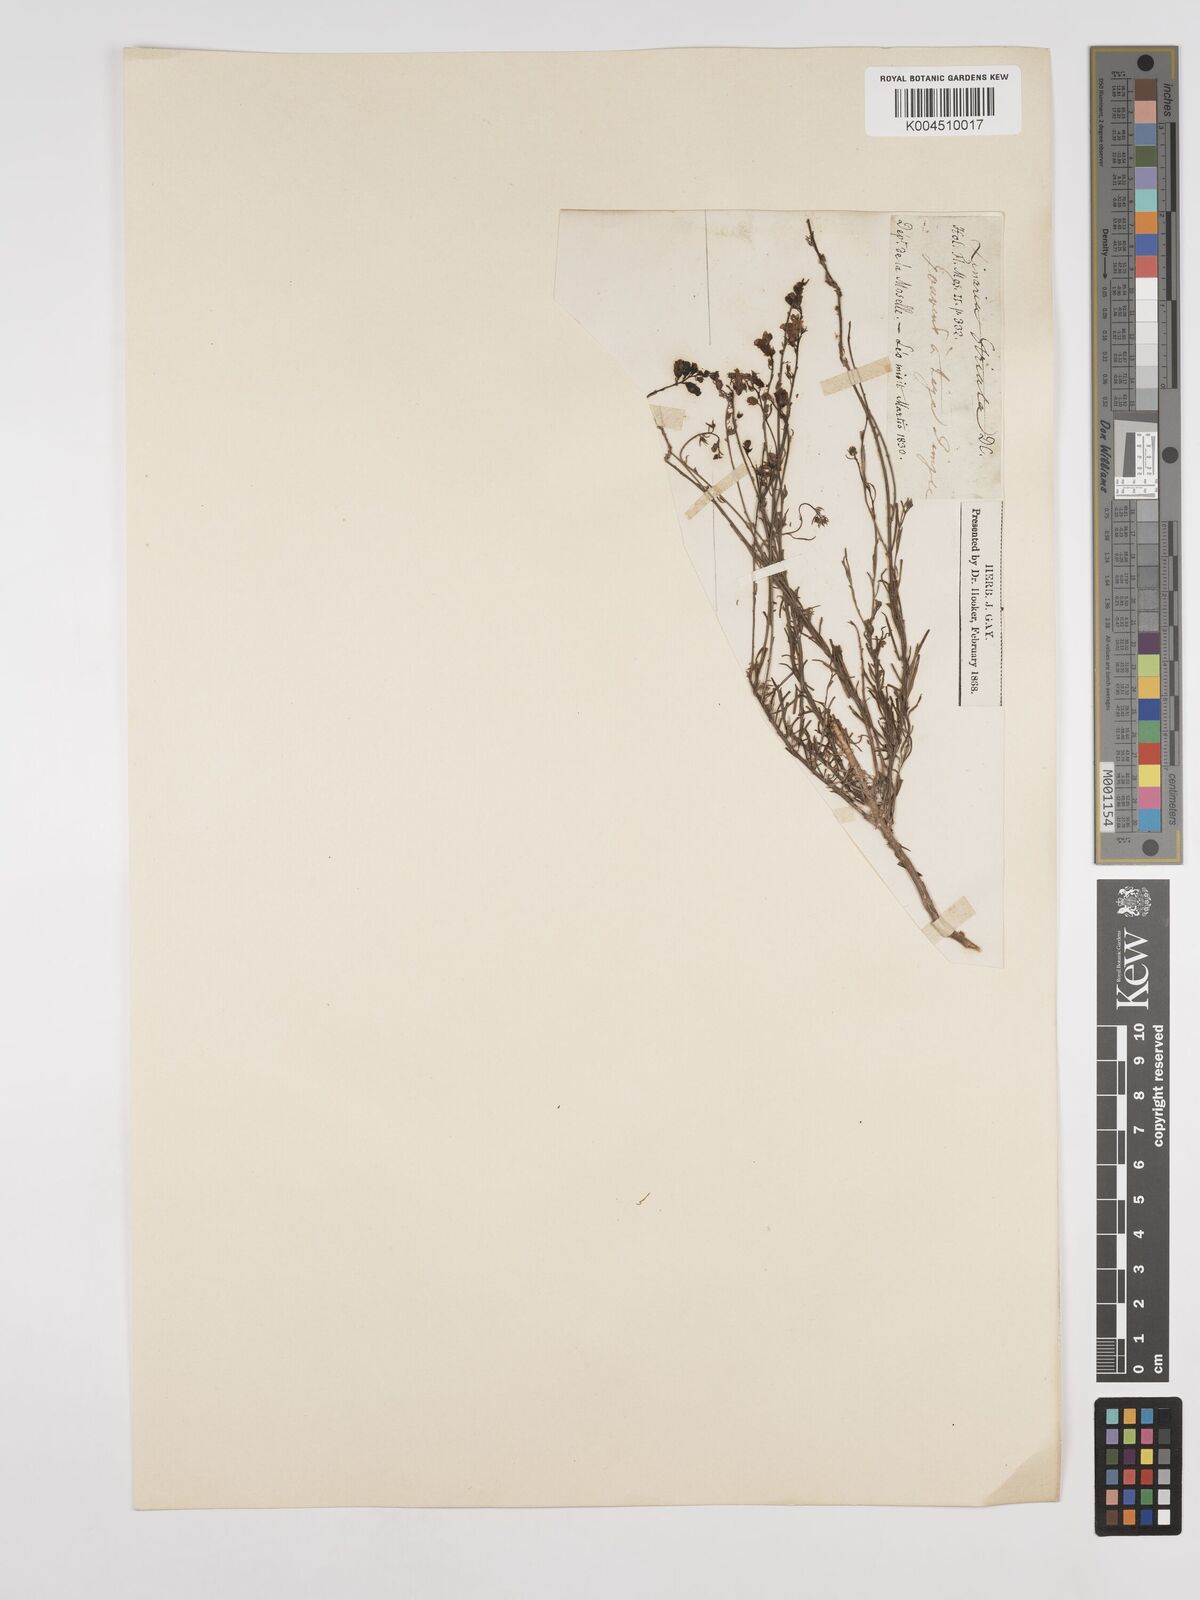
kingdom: Plantae
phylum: Tracheophyta
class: Magnoliopsida
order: Lamiales
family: Plantaginaceae
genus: Linaria
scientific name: Linaria repens
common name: Pale toadflax
